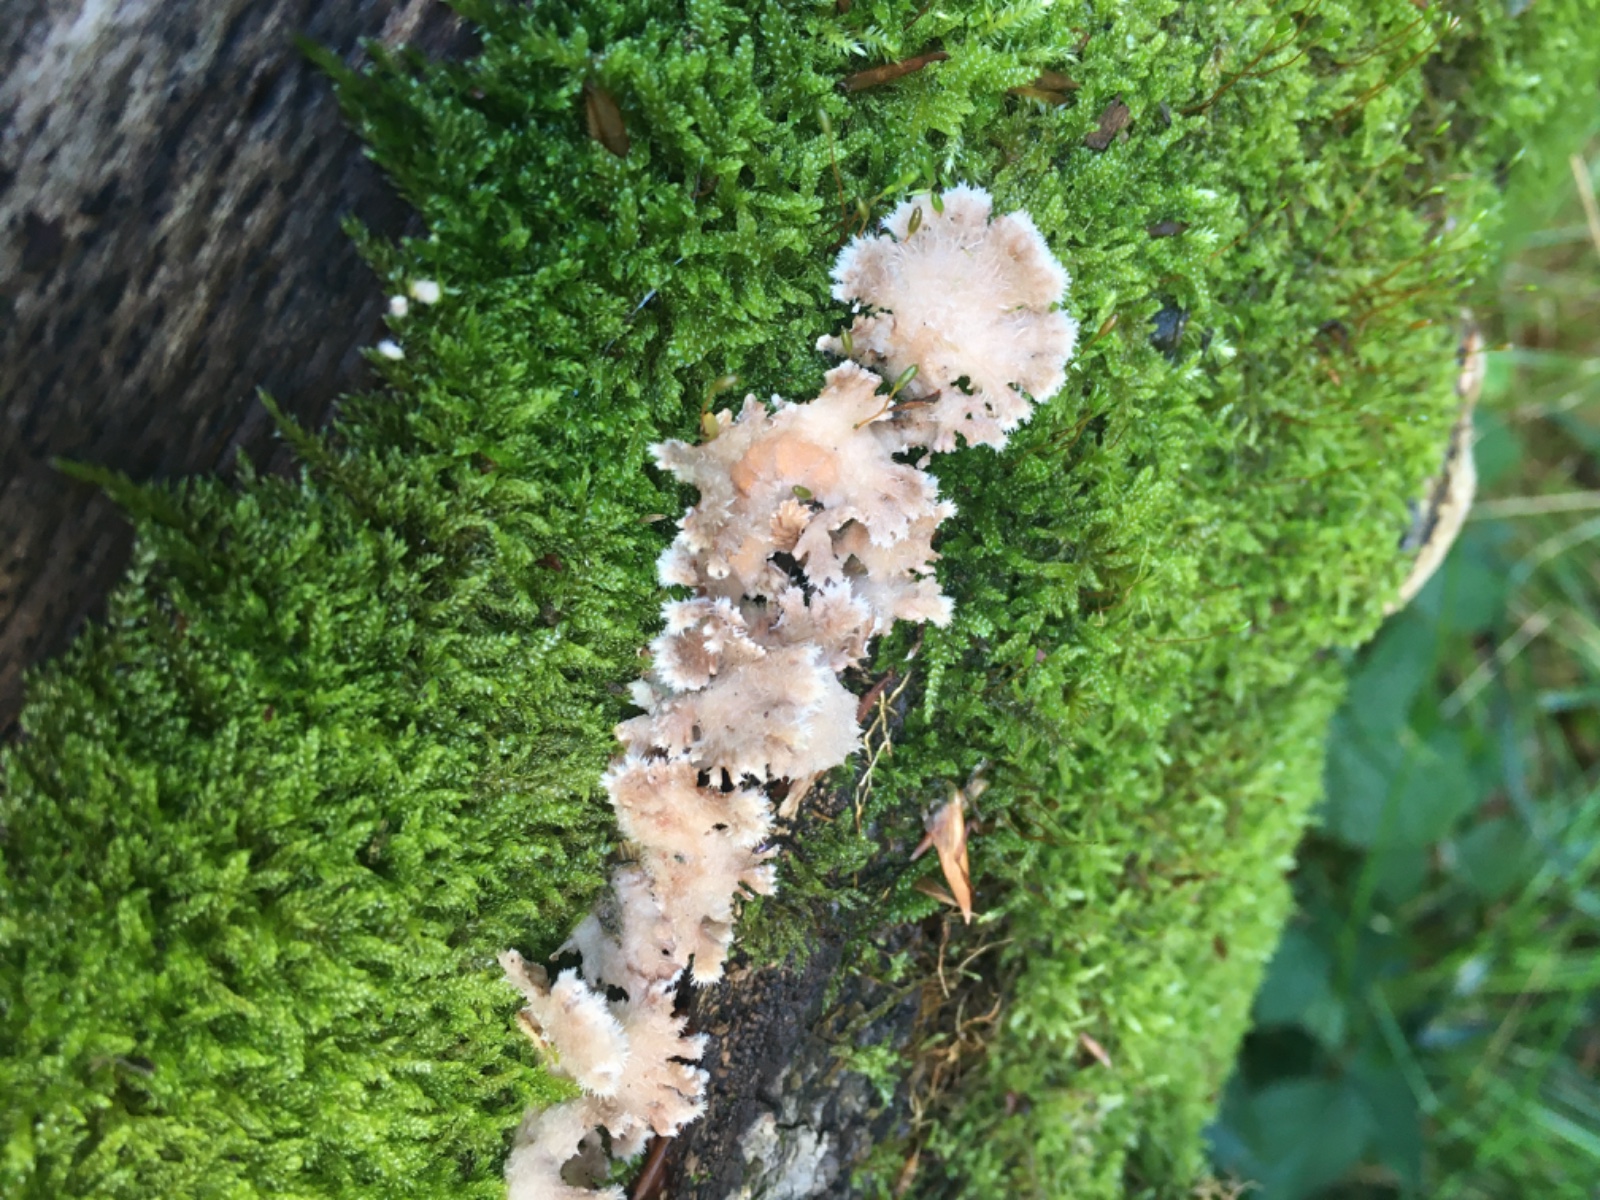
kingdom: Fungi
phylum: Basidiomycota
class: Agaricomycetes
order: Agaricales
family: Schizophyllaceae
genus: Schizophyllum
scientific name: Schizophyllum commune
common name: kløvblad
